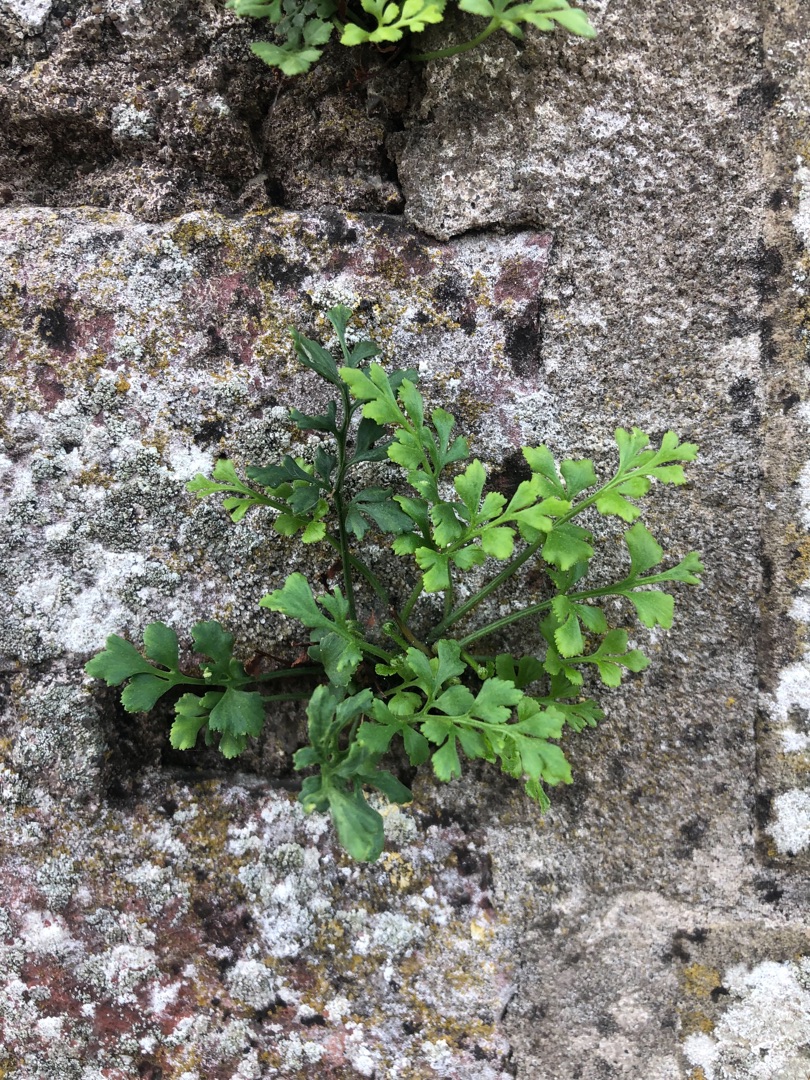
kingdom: Plantae
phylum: Tracheophyta
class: Polypodiopsida
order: Polypodiales
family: Aspleniaceae
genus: Asplenium
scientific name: Asplenium ruta-muraria
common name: Murrude
